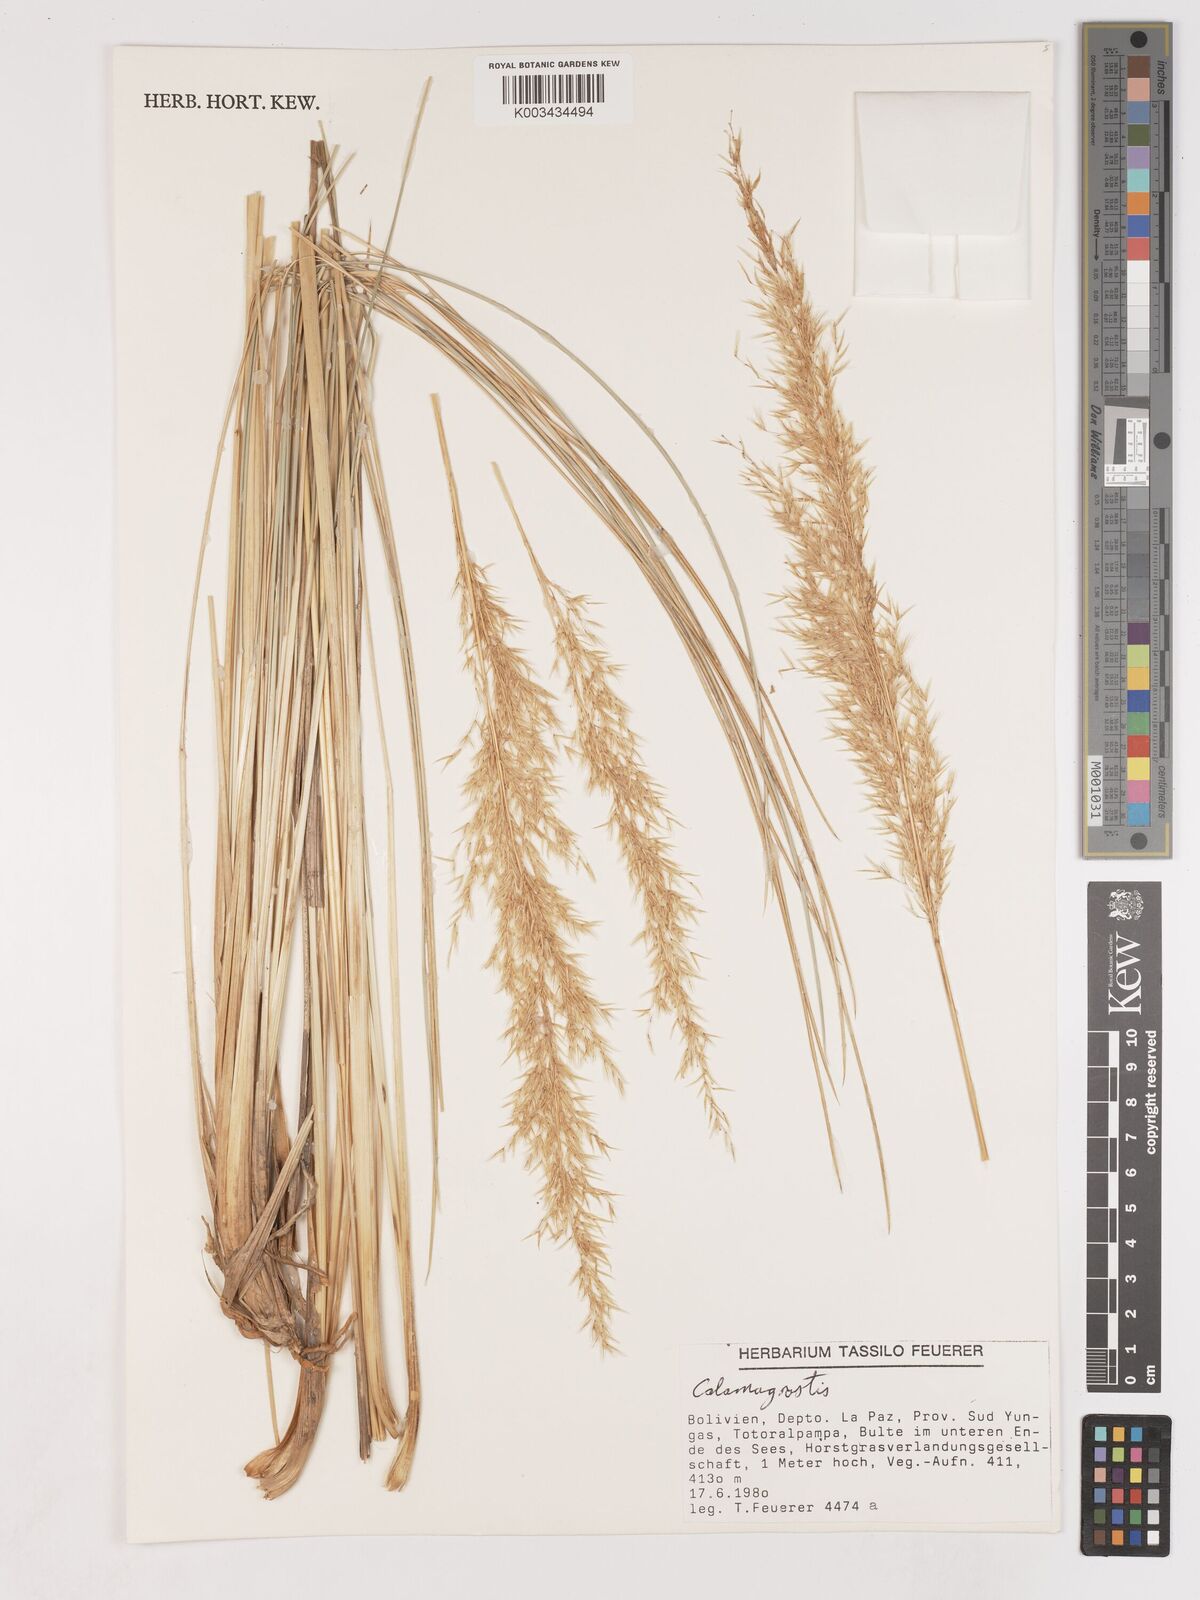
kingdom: Plantae
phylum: Tracheophyta
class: Liliopsida
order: Poales
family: Poaceae
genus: Cinnagrostis
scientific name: Cinnagrostis rigida
